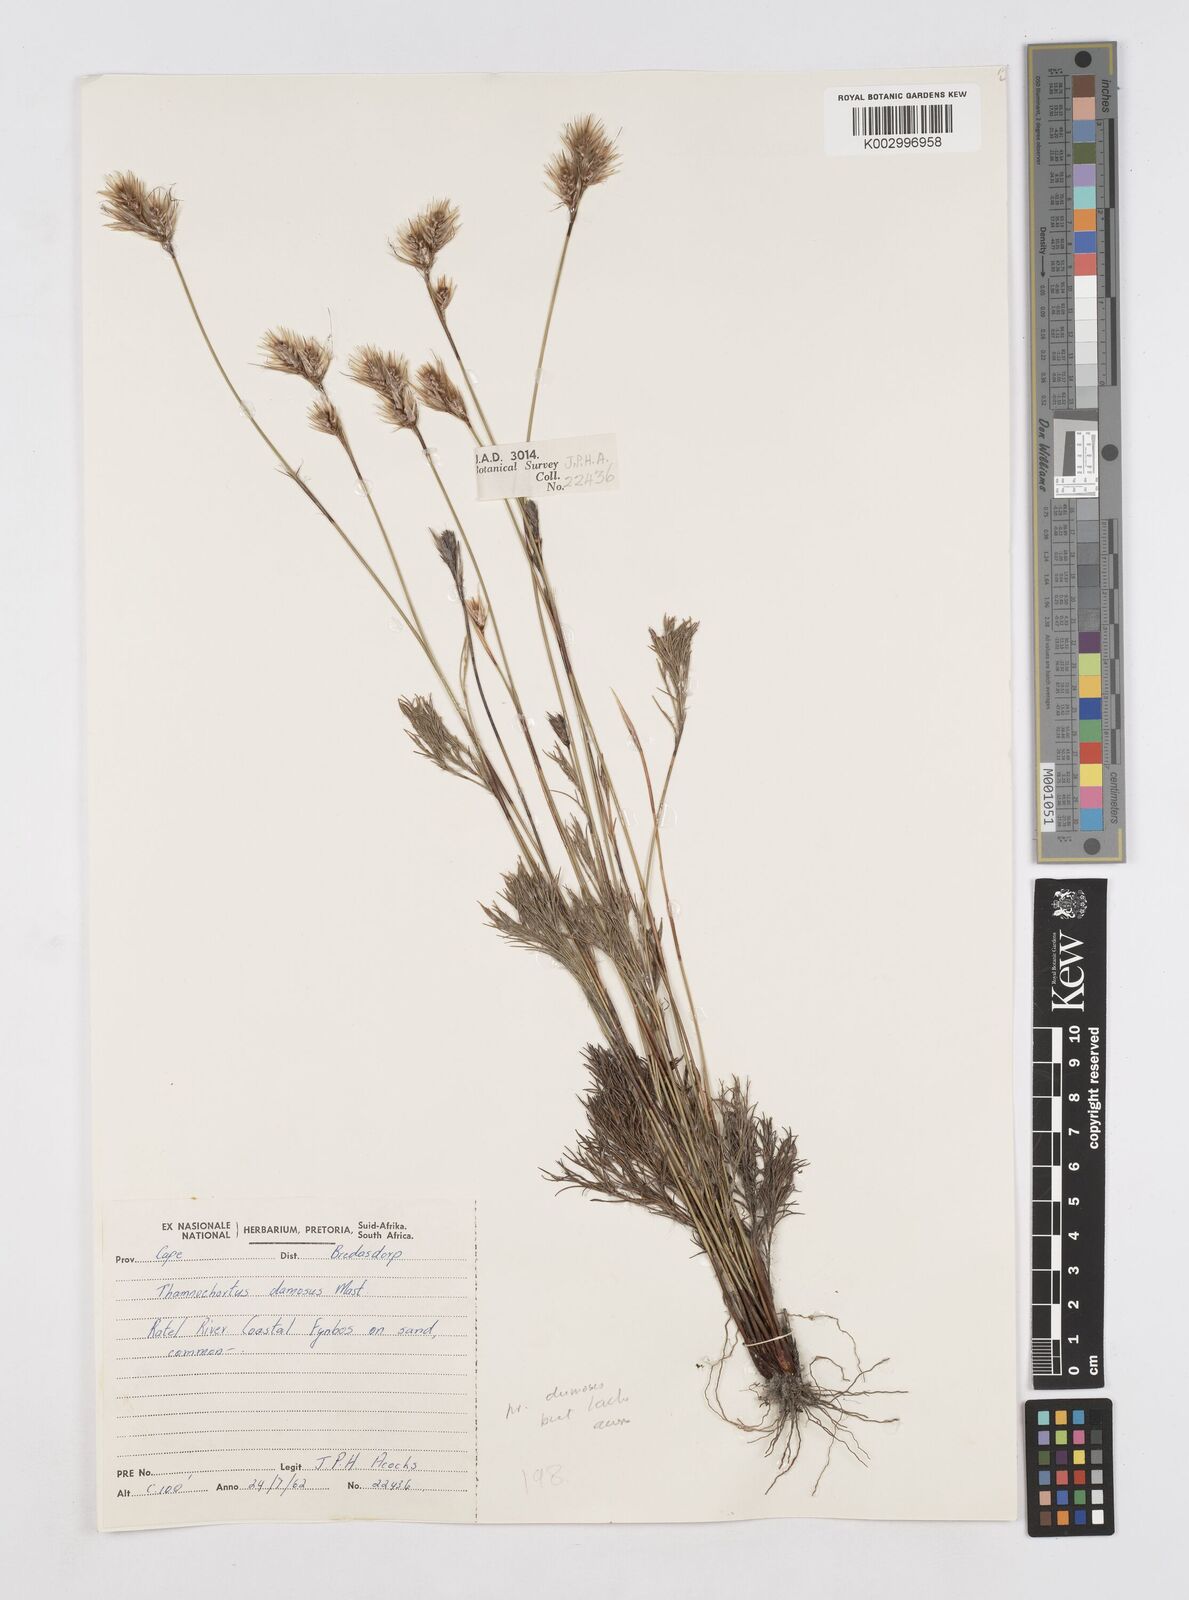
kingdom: Plantae
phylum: Tracheophyta
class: Liliopsida
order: Poales
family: Restionaceae
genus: Thamnochortus
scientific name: Thamnochortus dumosus
